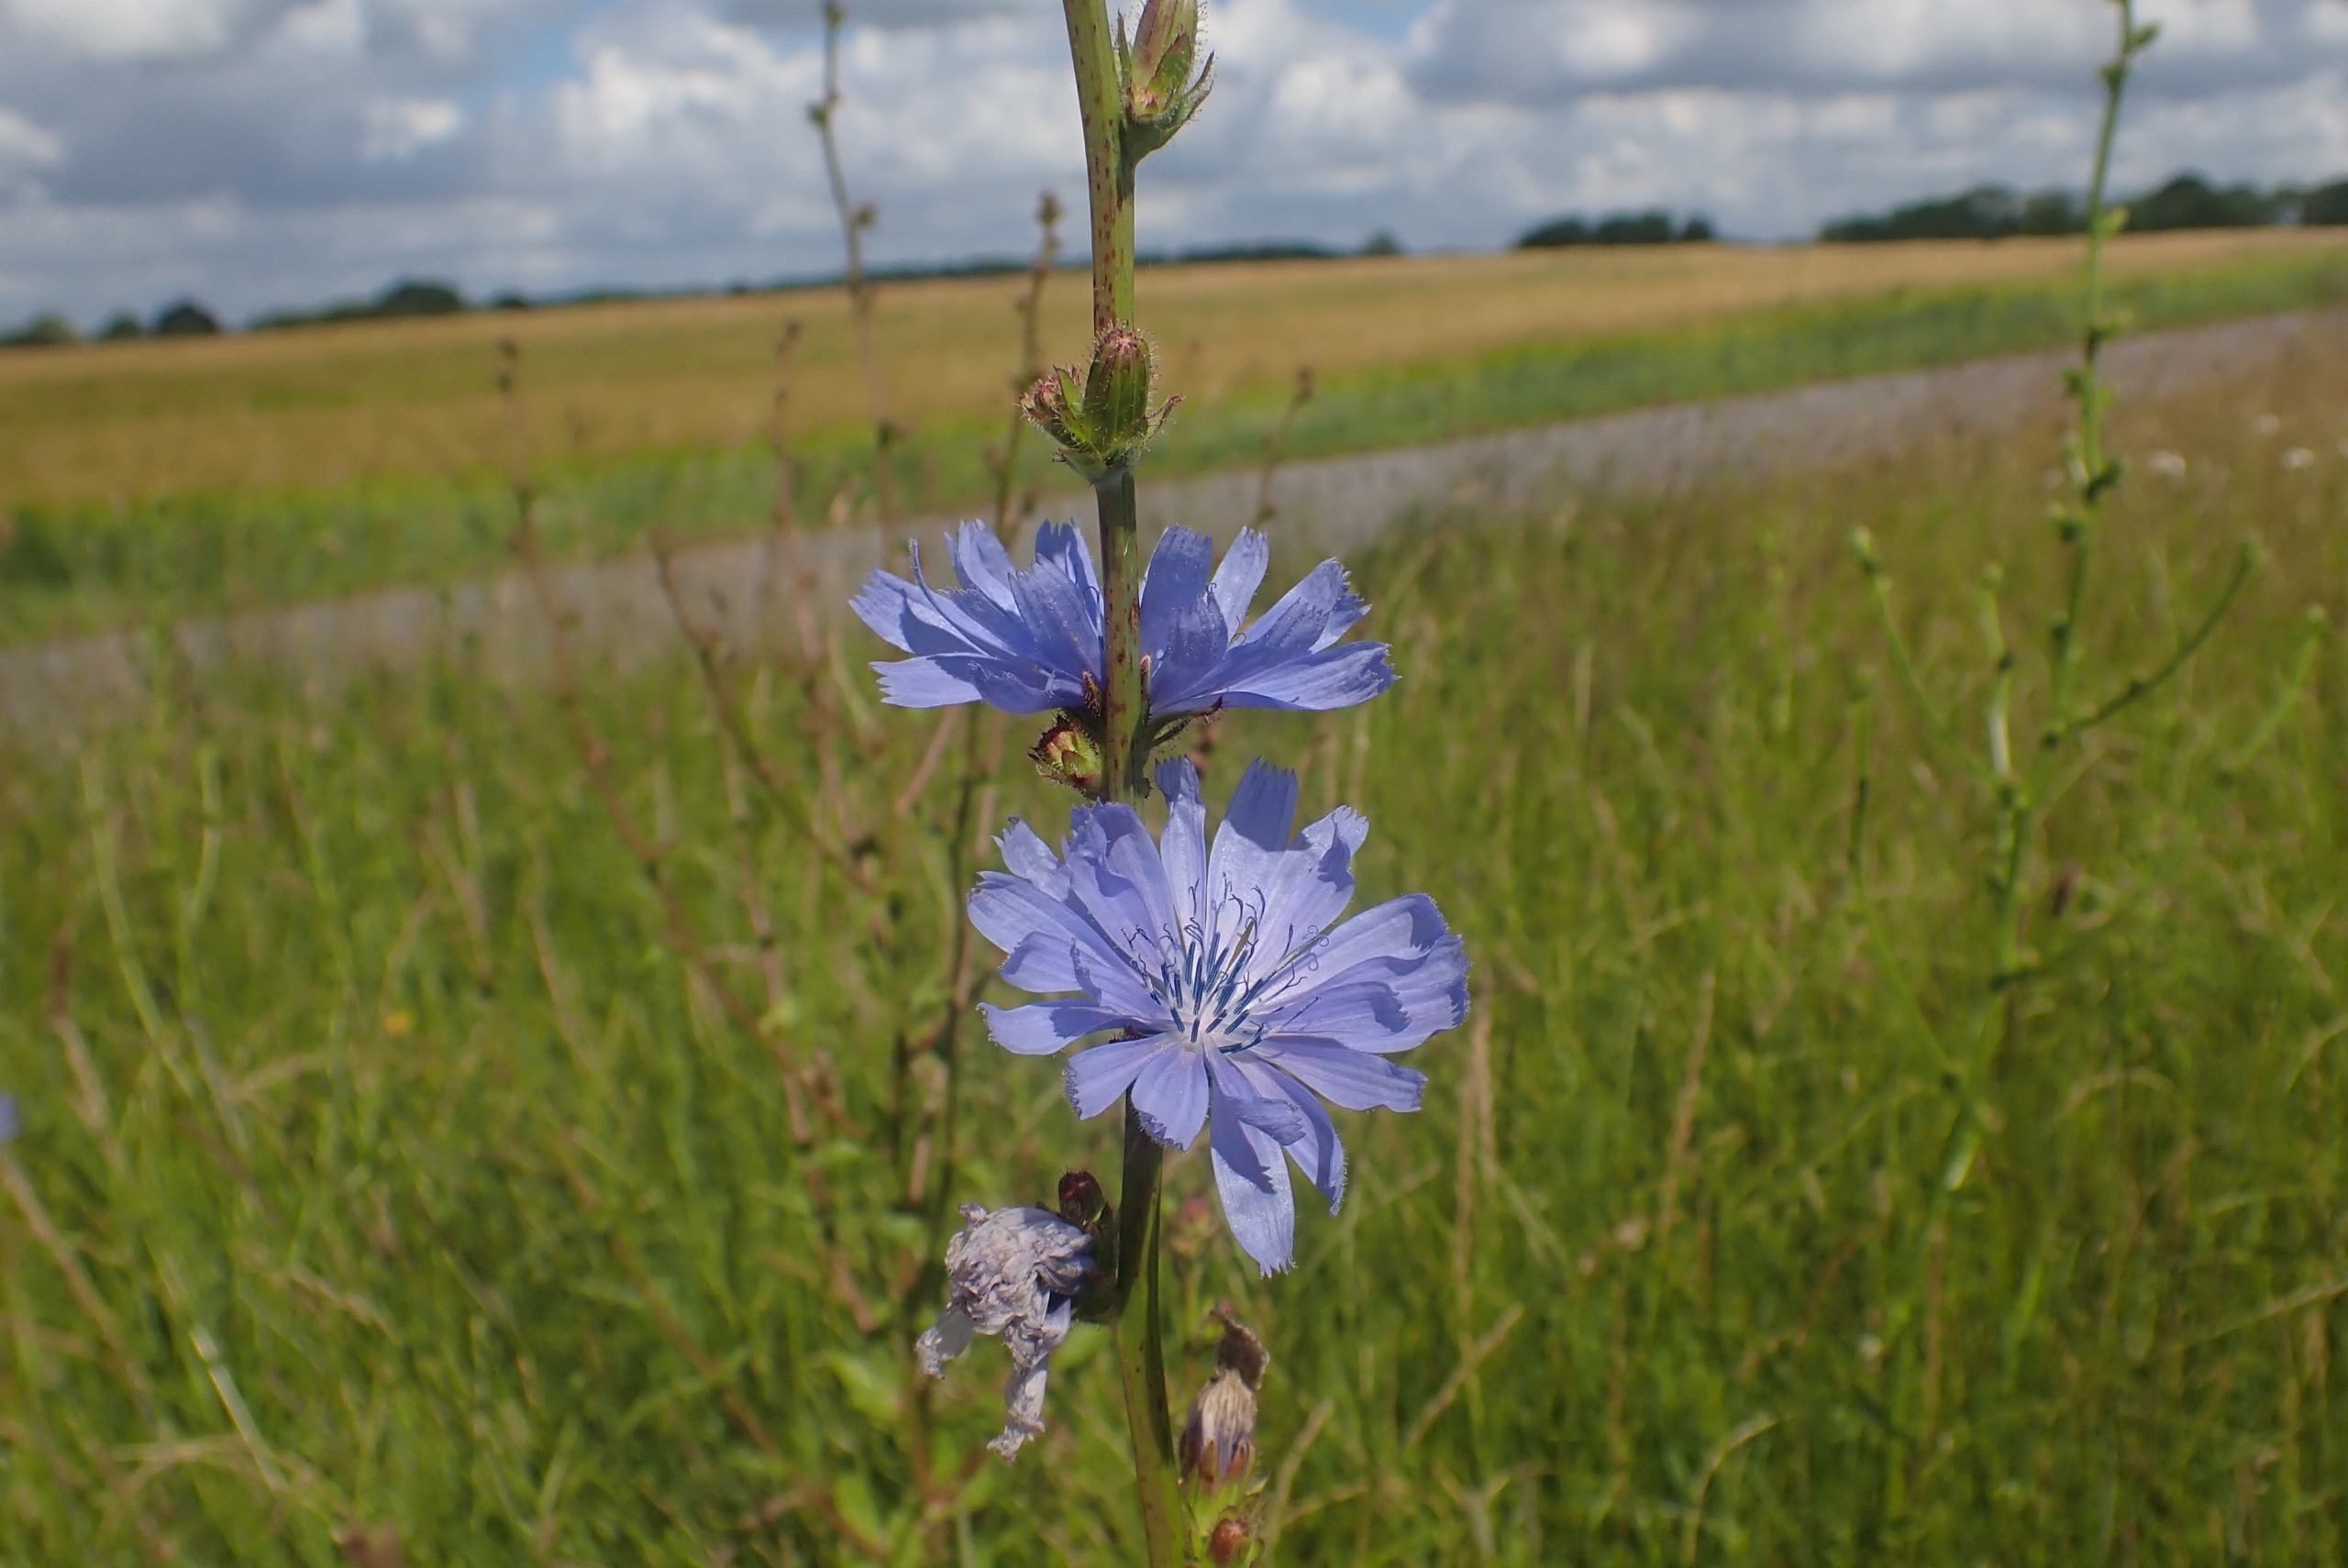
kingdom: Plantae
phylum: Tracheophyta
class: Magnoliopsida
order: Asterales
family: Asteraceae
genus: Cichorium
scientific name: Cichorium intybus
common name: Cikorie
